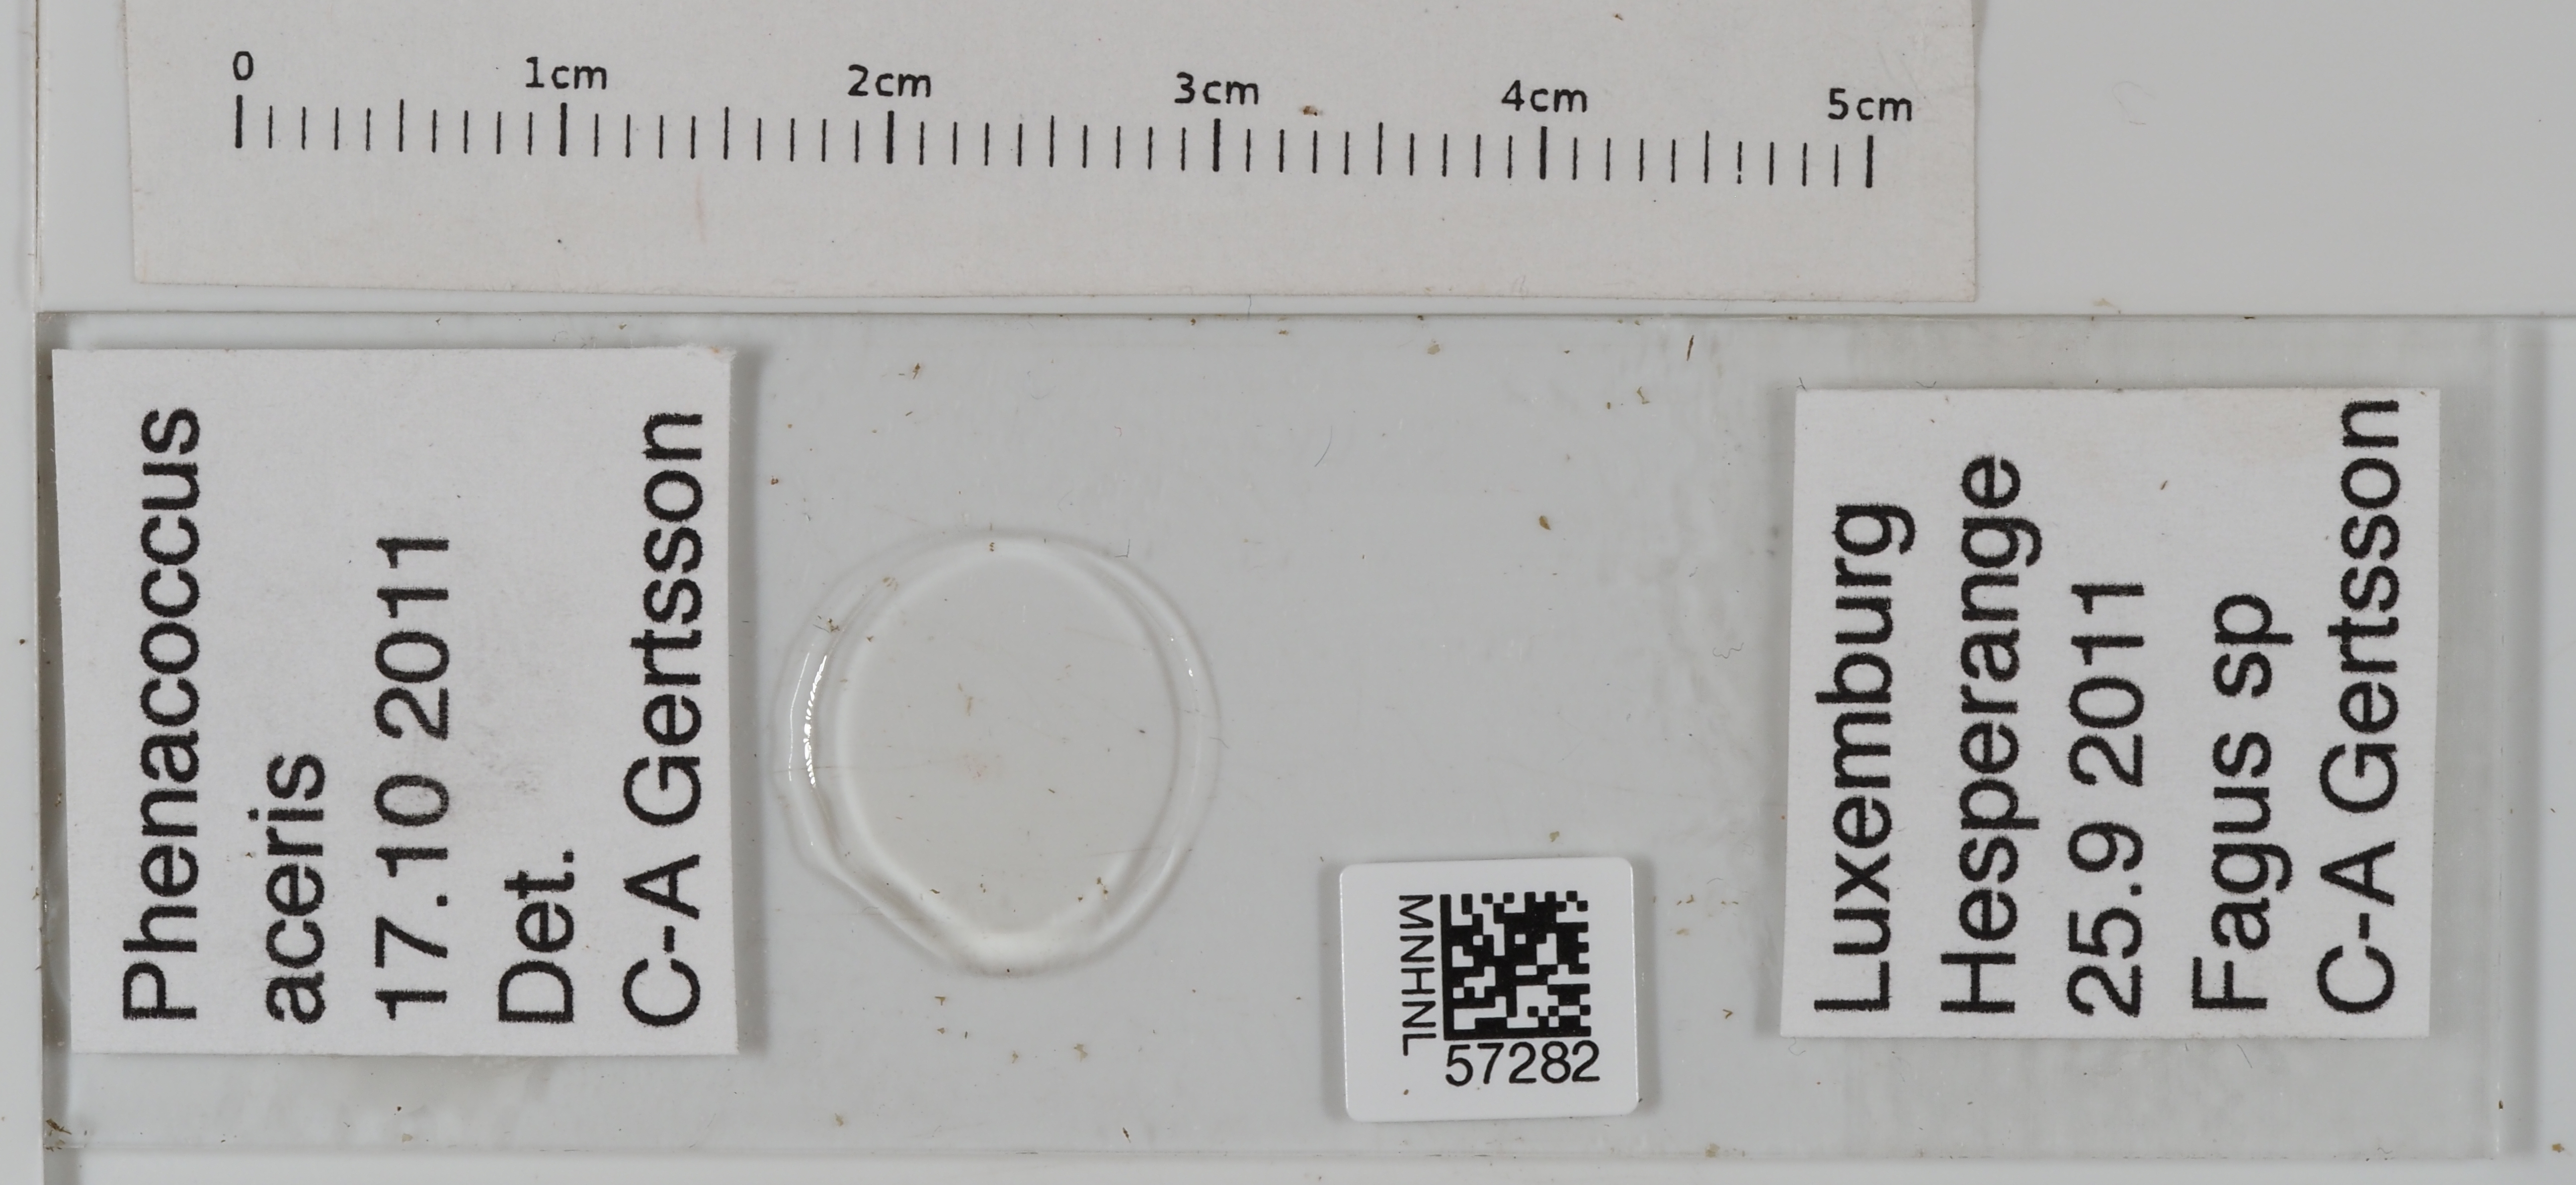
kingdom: Animalia
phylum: Arthropoda
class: Insecta
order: Hemiptera
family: Pseudococcidae
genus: Phenacoccus
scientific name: Phenacoccus aceris
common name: Apple mealybug
